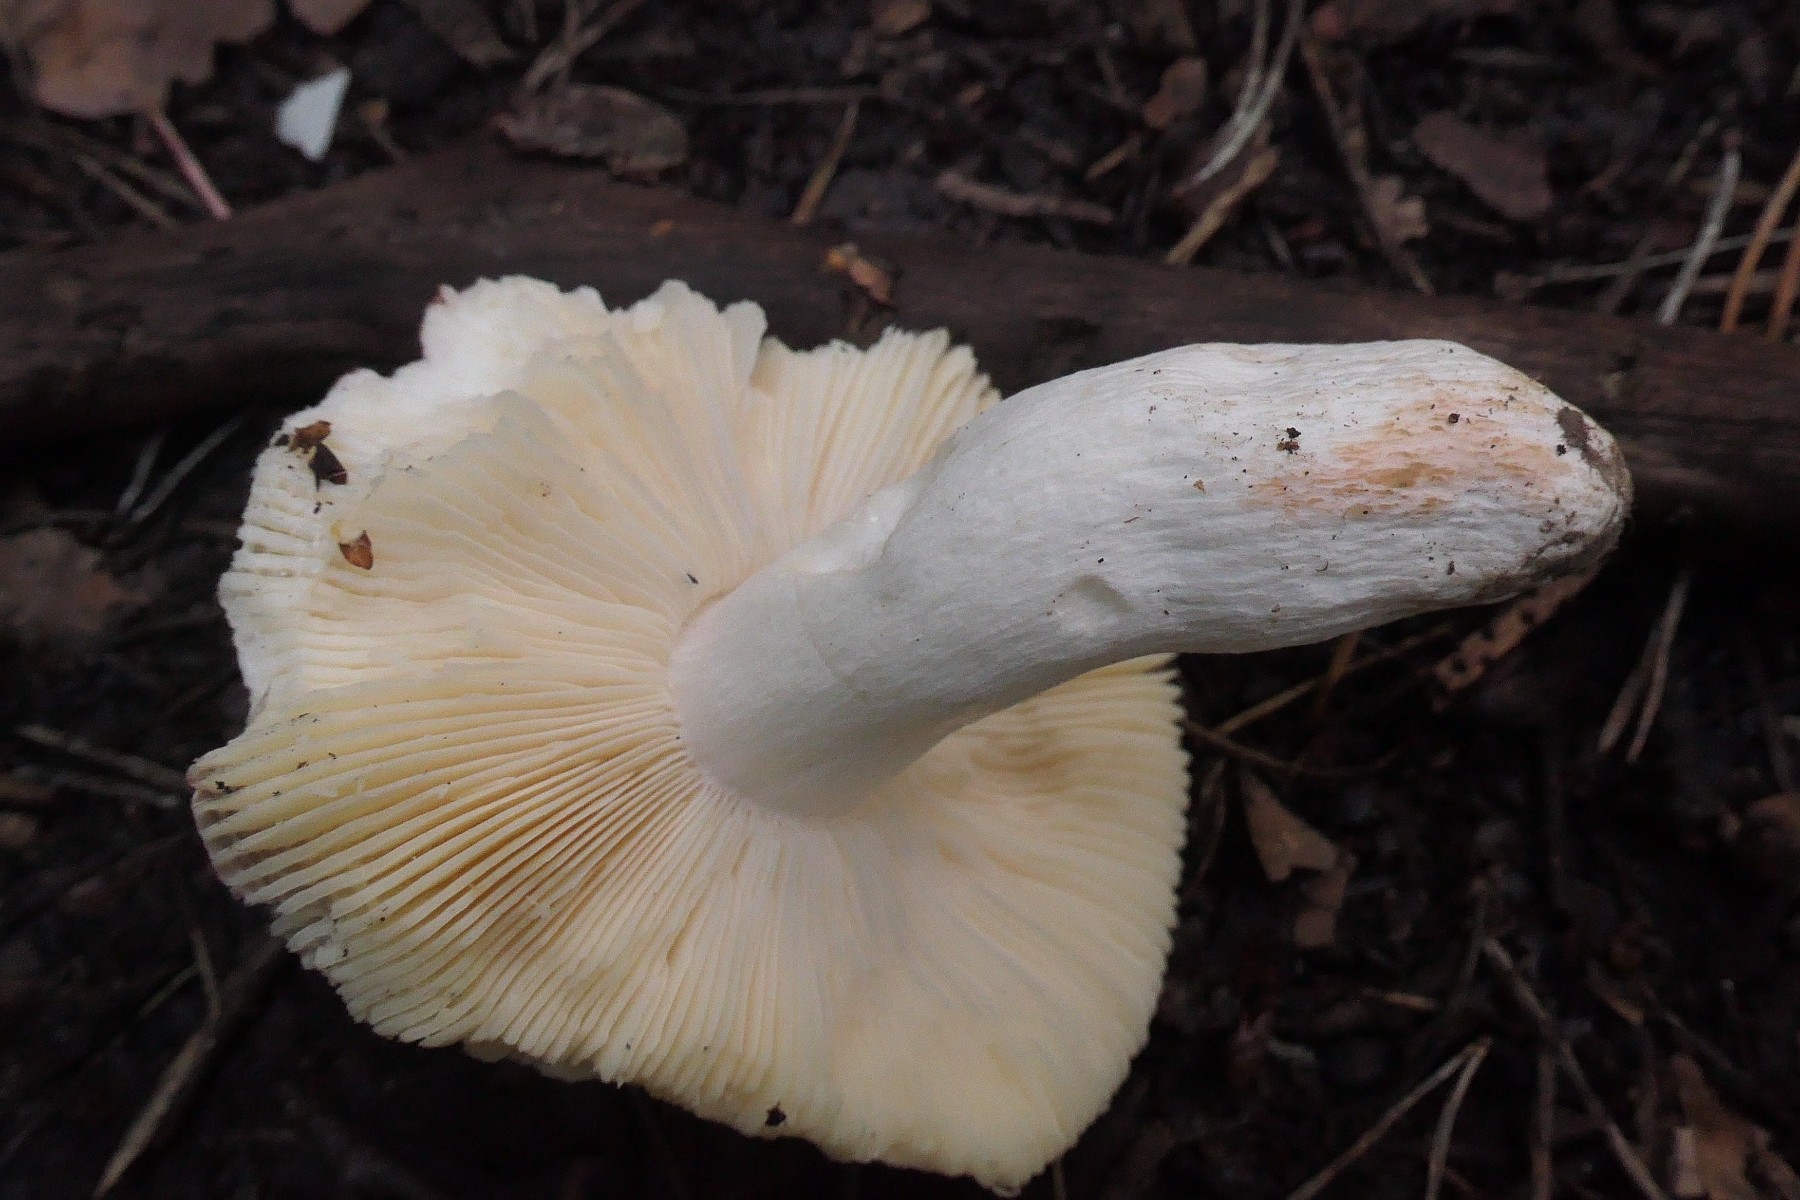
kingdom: Fungi
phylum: Basidiomycota
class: Agaricomycetes
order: Russulales
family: Russulaceae
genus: Russula
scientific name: Russula pseudointegra
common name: cinnoberrød skørhat
